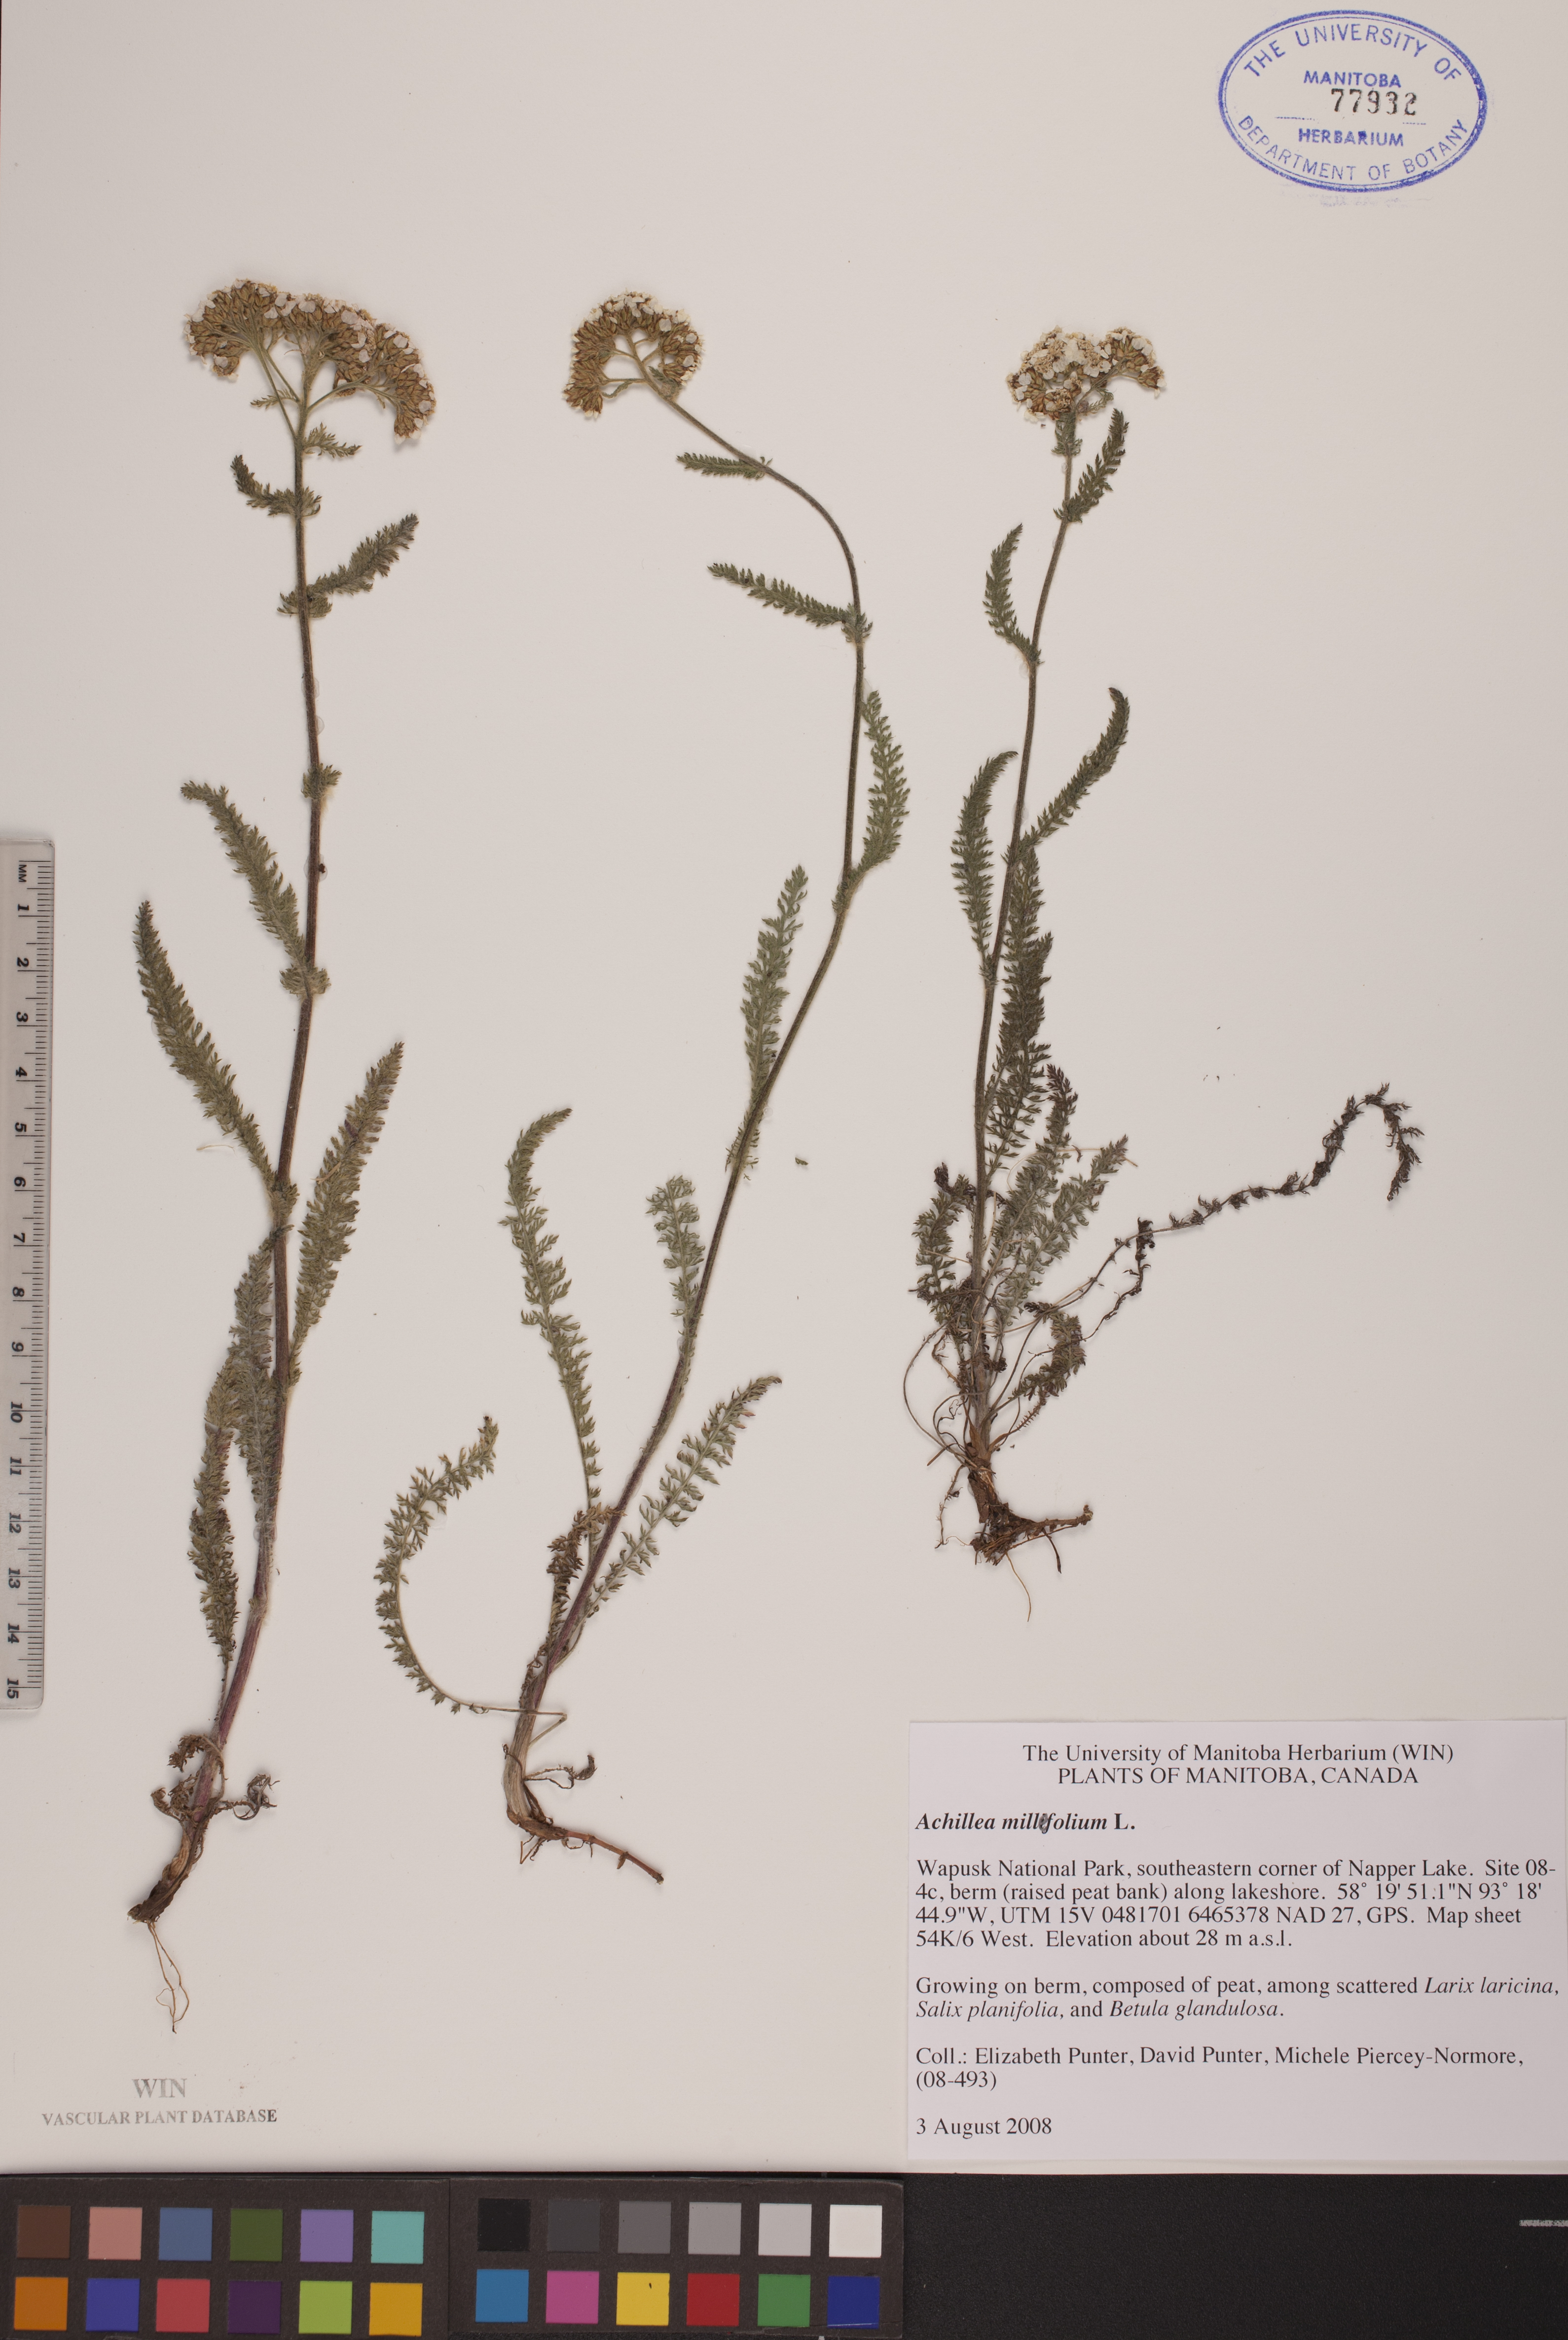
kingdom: Plantae
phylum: Tracheophyta
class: Magnoliopsida
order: Asterales
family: Asteraceae
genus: Achillea
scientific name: Achillea millefolium
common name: Yarrow
